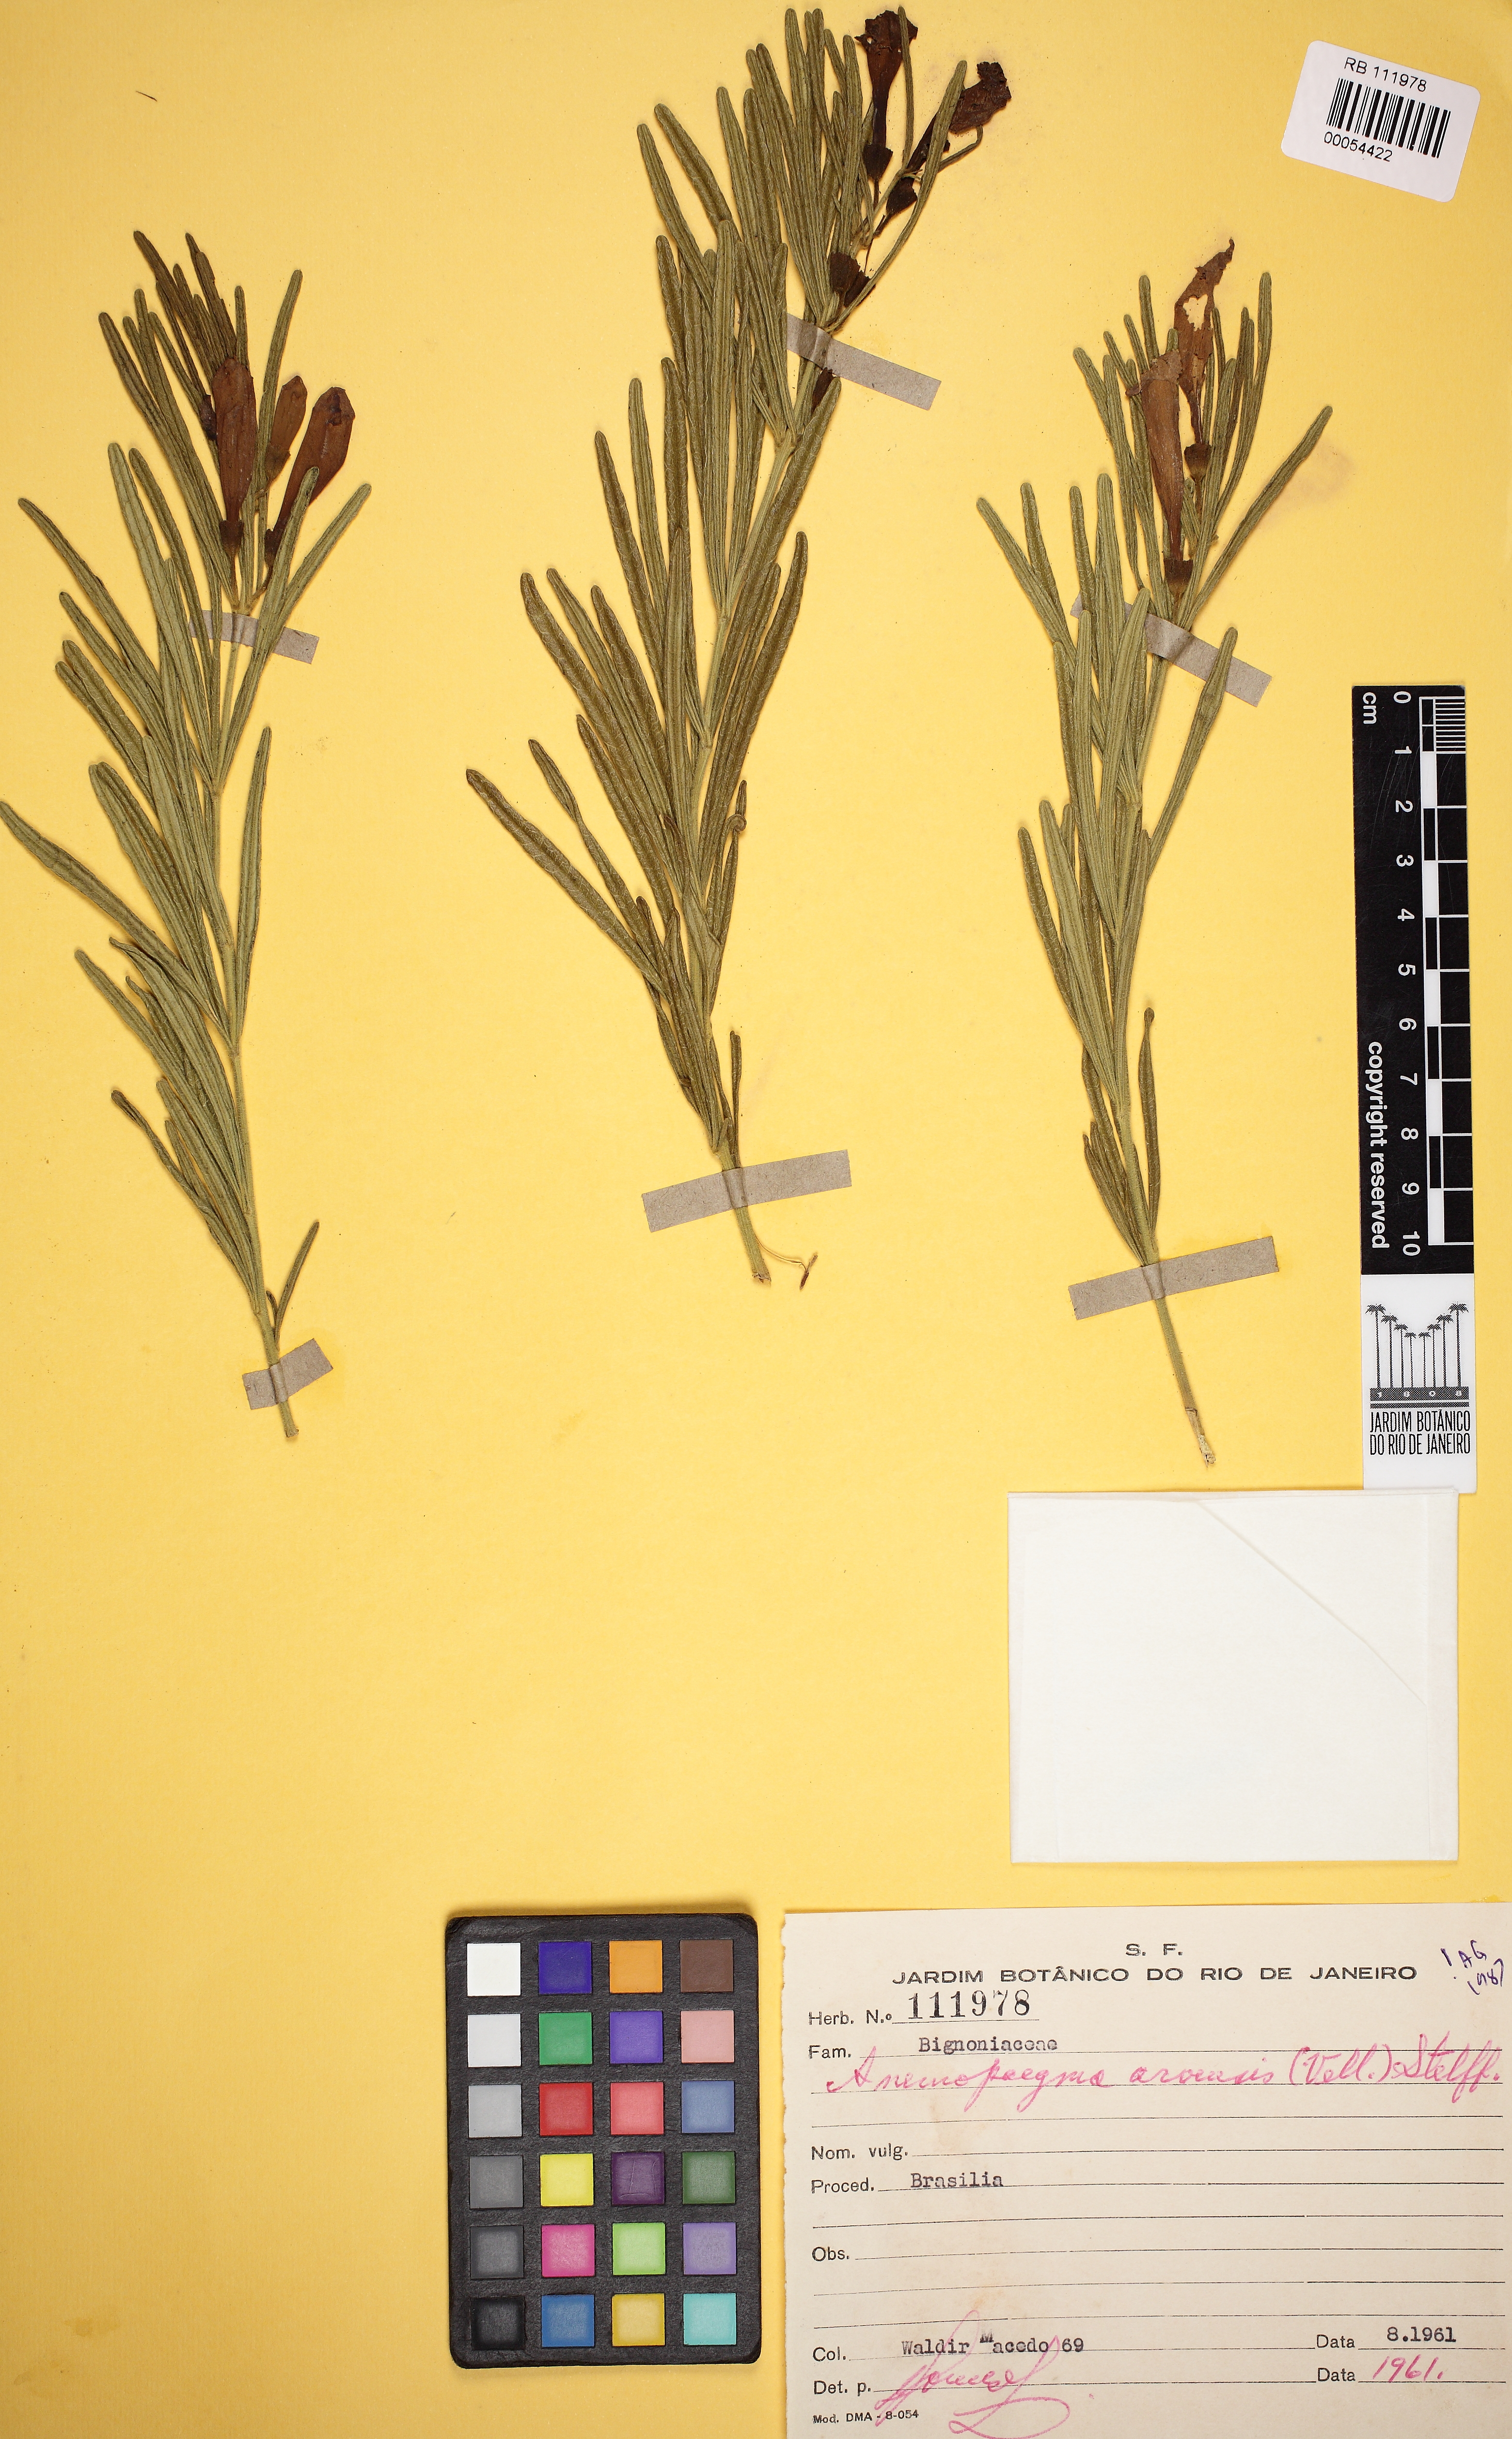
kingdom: Plantae
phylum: Tracheophyta
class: Magnoliopsida
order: Lamiales
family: Bignoniaceae
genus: Anemopaegma
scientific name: Anemopaegma arvense
